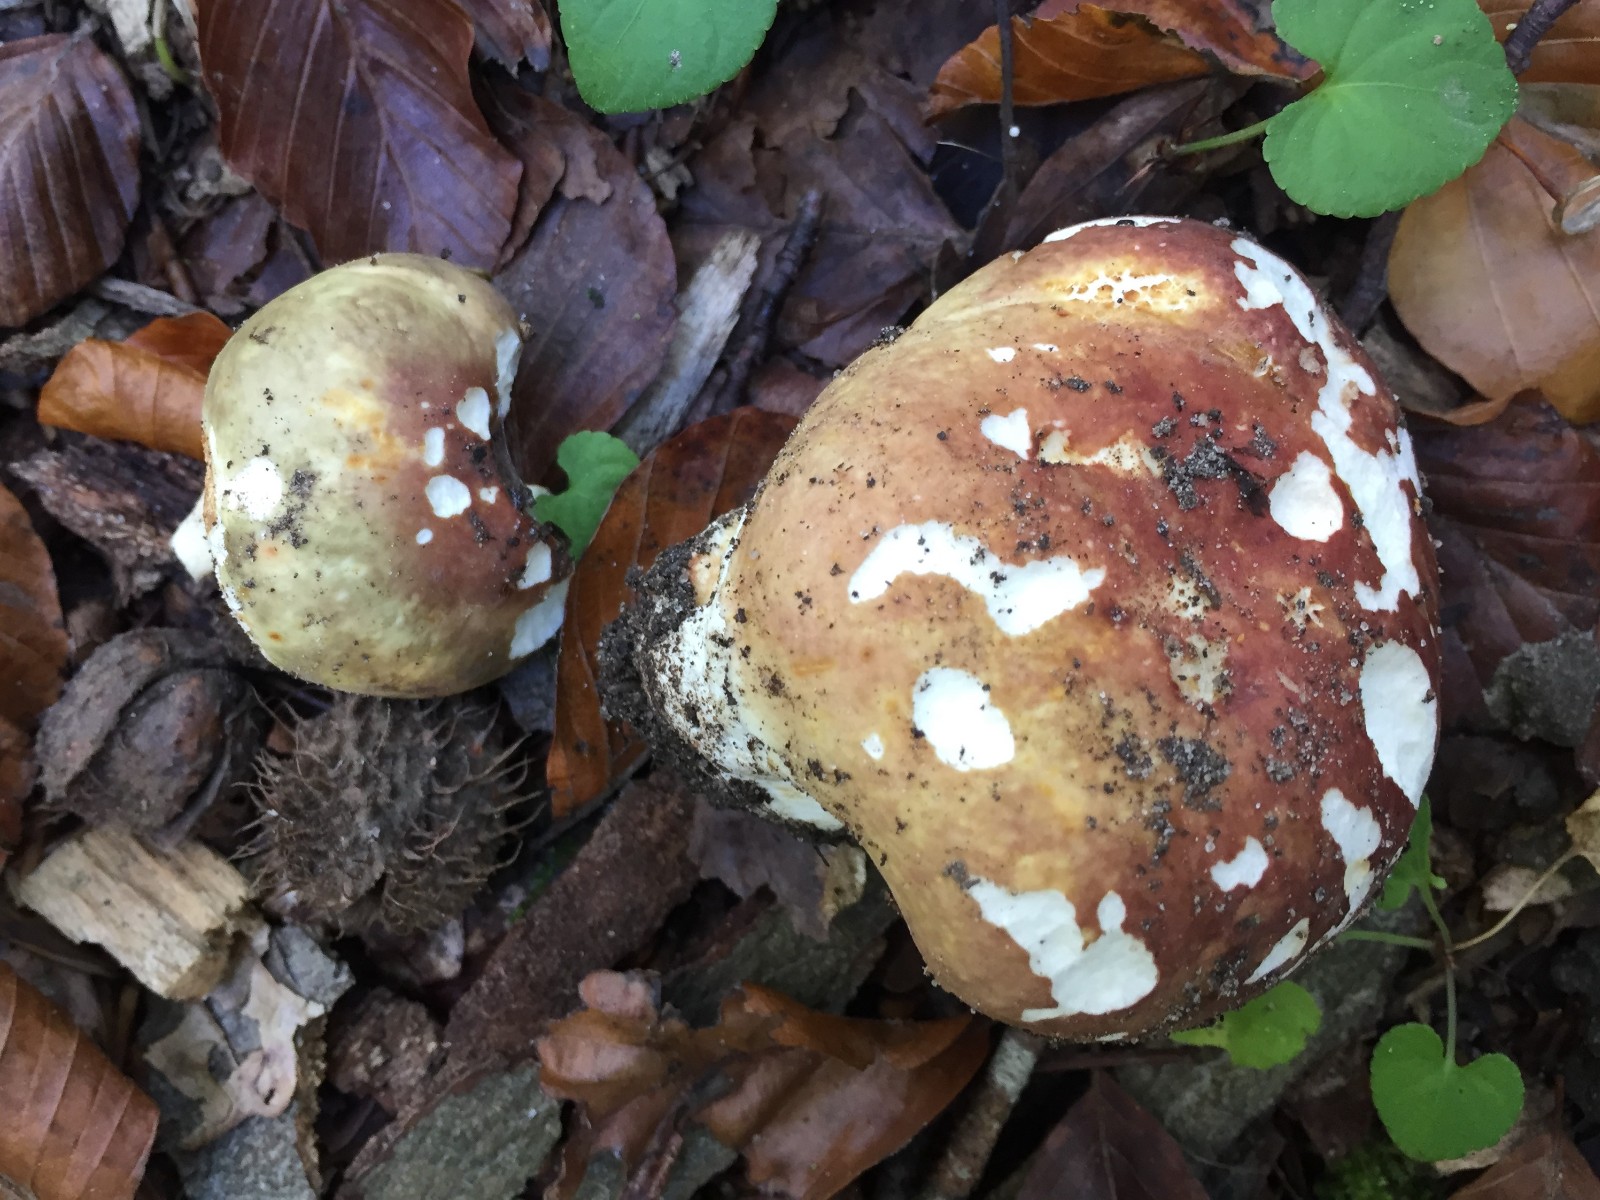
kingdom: Fungi
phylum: Basidiomycota
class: Agaricomycetes
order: Russulales
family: Russulaceae
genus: Russula
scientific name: Russula
